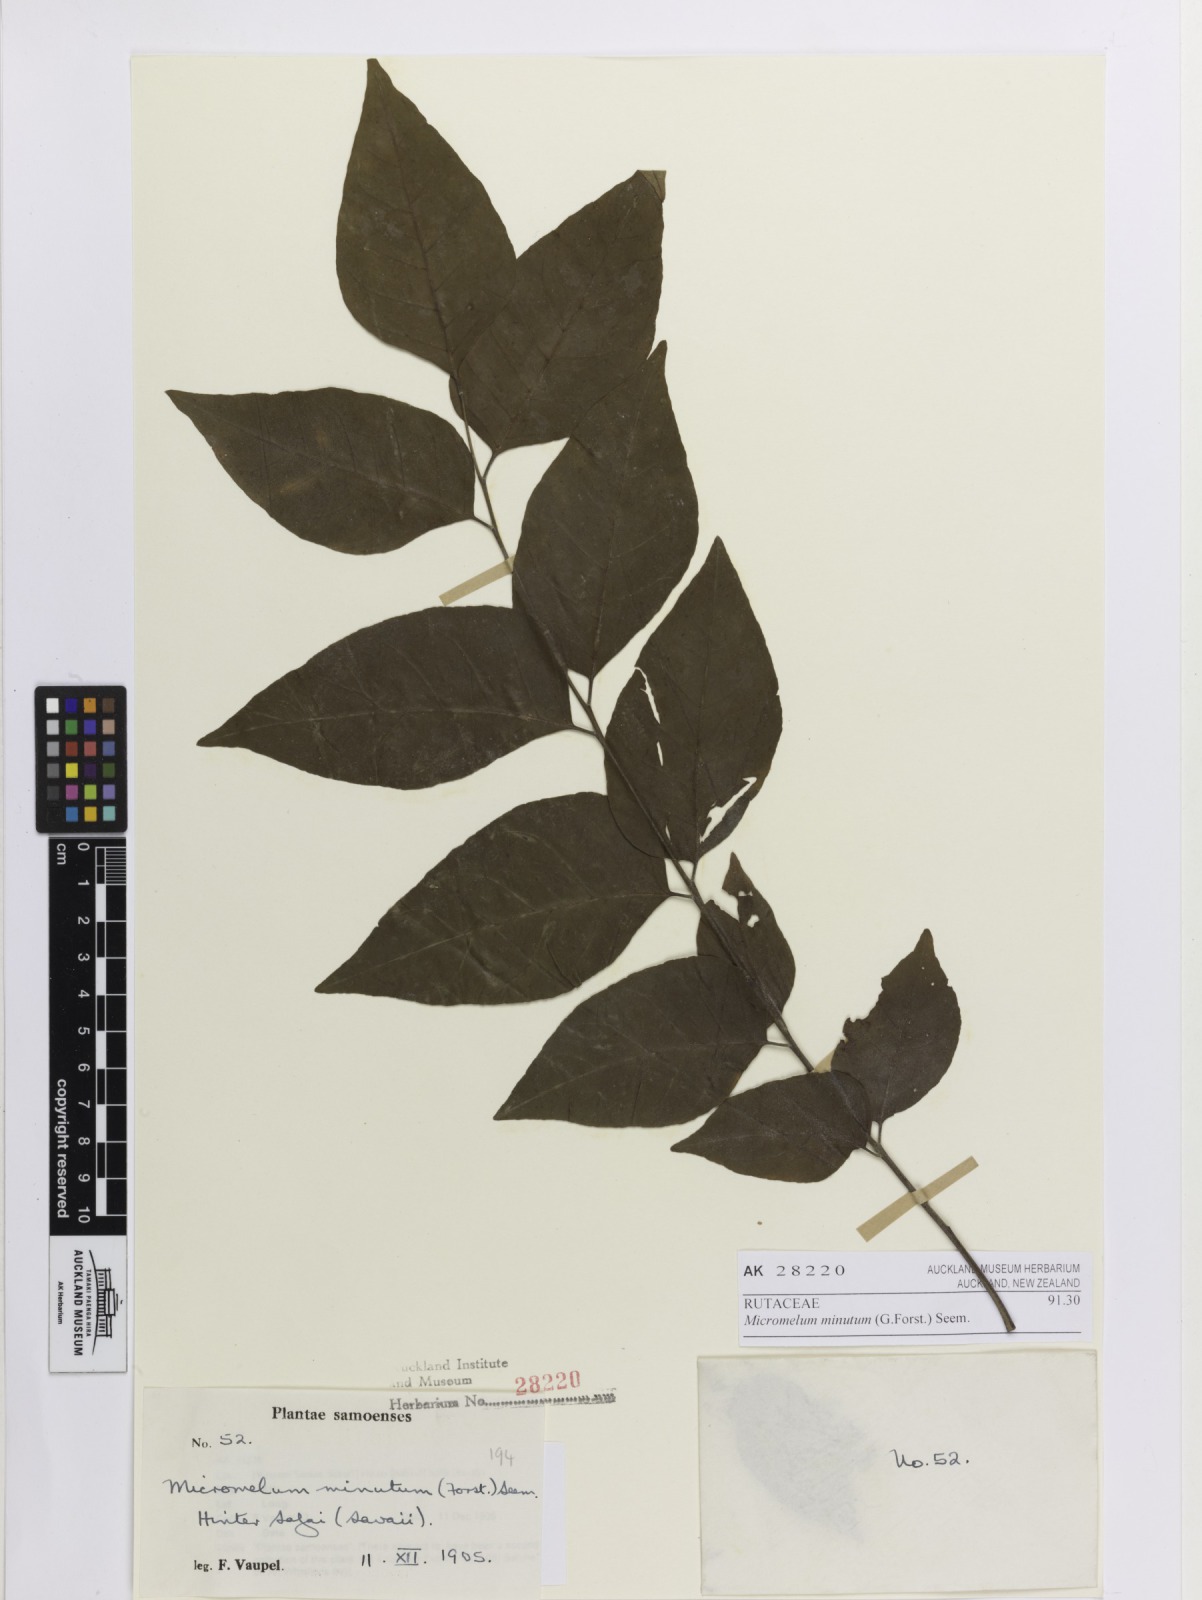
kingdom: Plantae
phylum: Tracheophyta
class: Magnoliopsida
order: Sapindales
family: Rutaceae
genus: Micromelum
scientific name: Micromelum minutum
